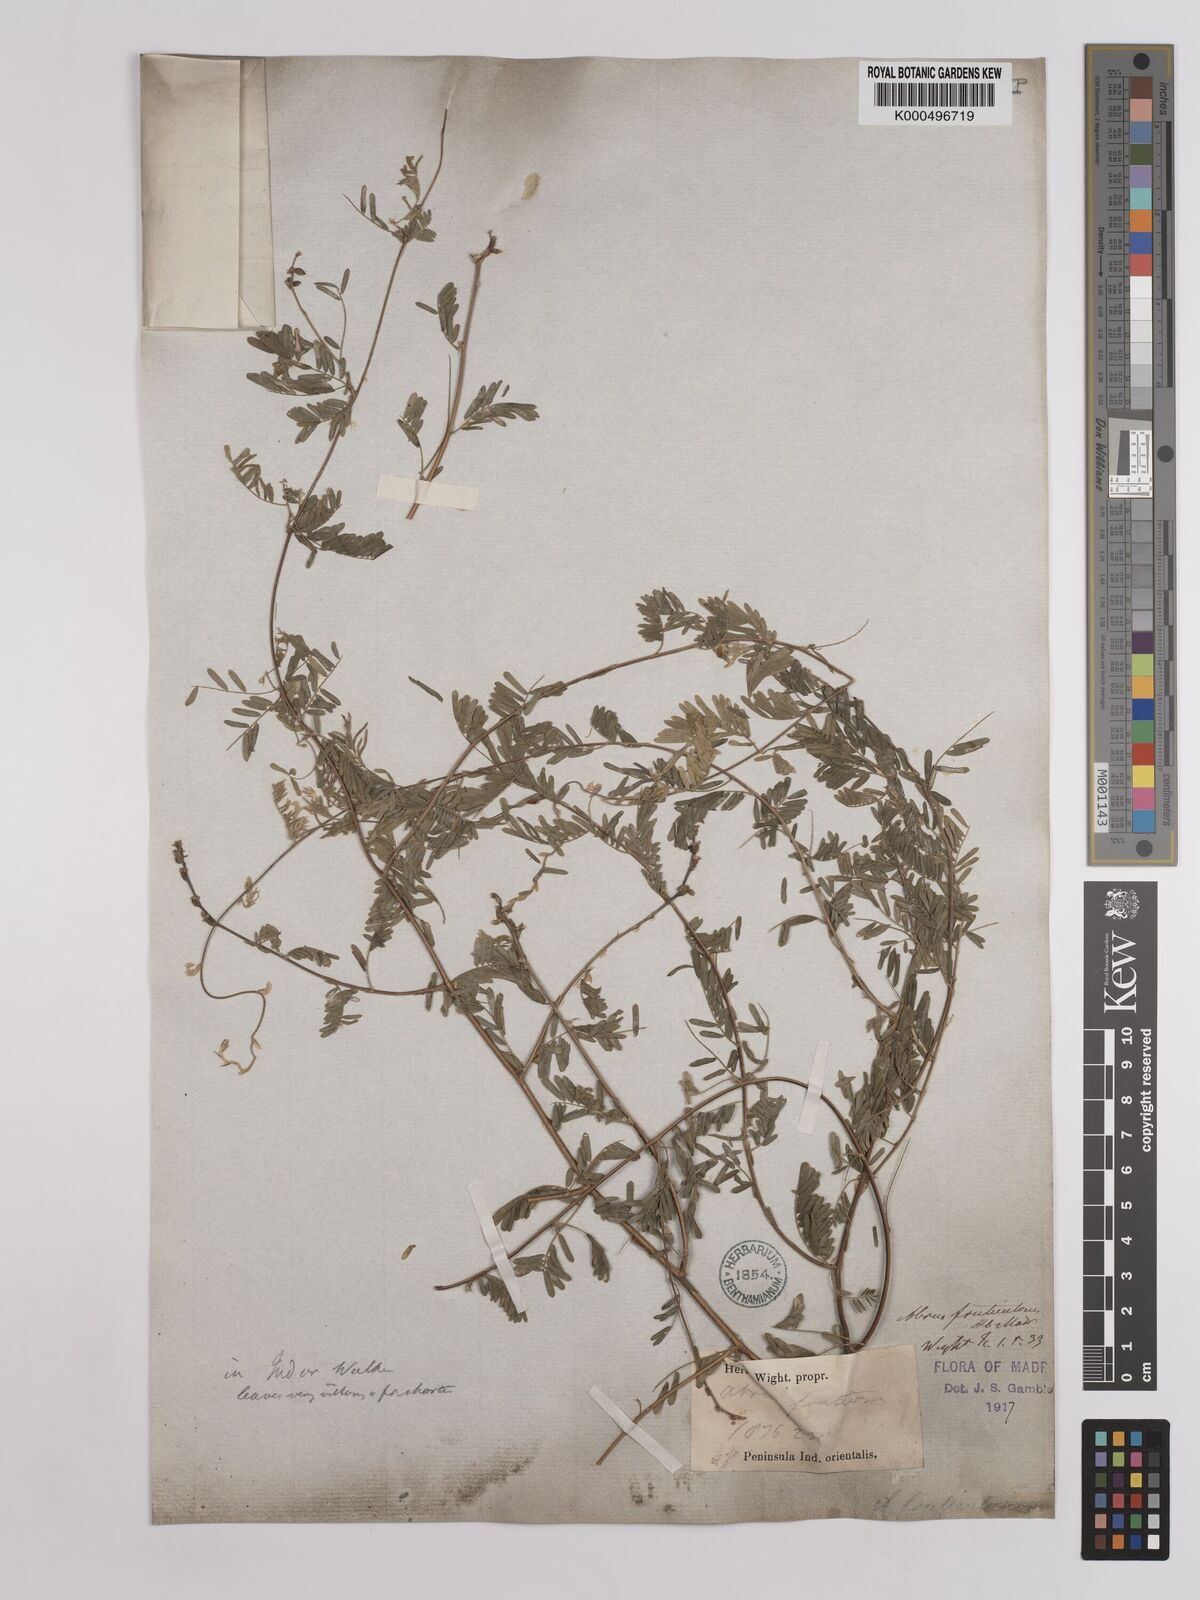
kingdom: Plantae
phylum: Tracheophyta
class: Magnoliopsida
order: Fabales
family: Fabaceae
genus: Abrus
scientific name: Abrus fruticulosus
